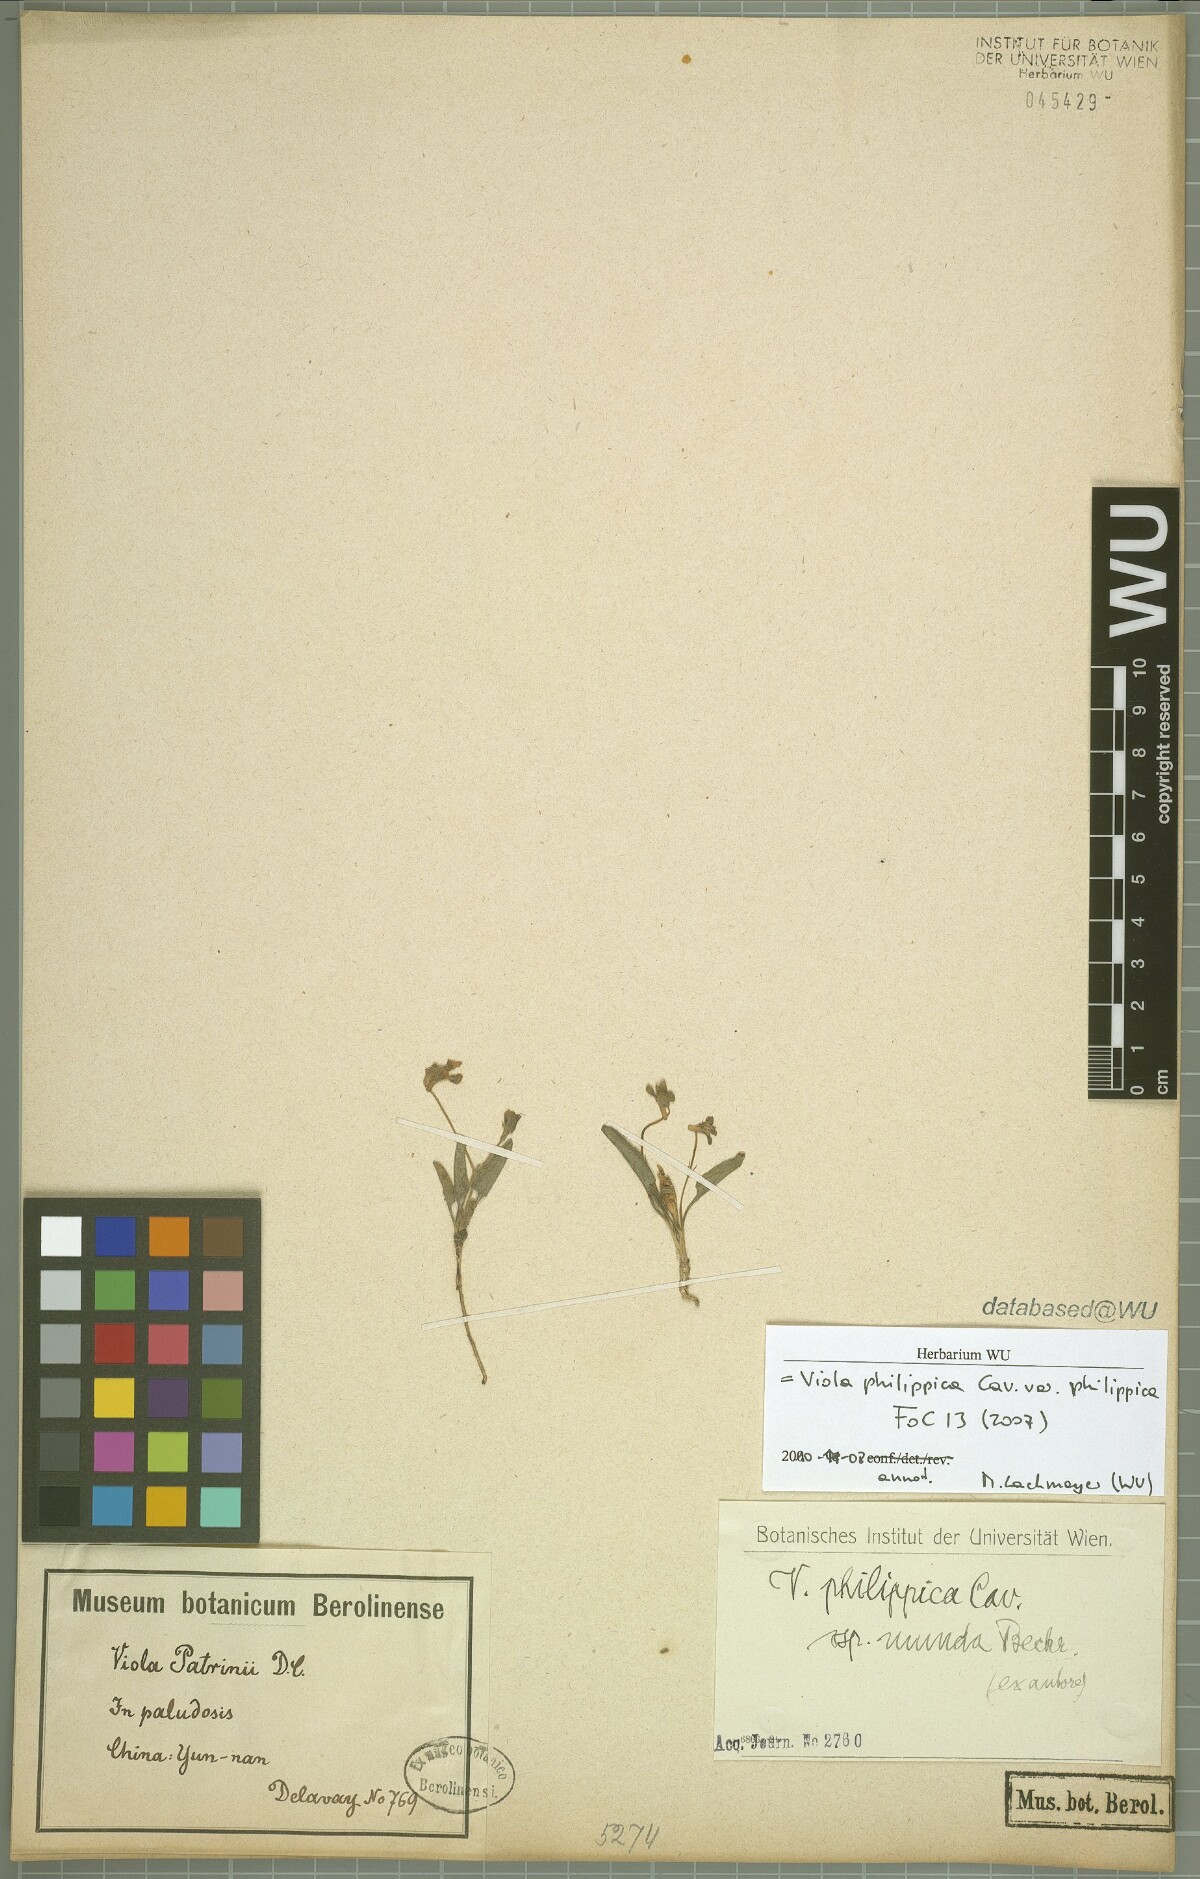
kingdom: Plantae
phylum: Tracheophyta
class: Magnoliopsida
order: Malpighiales
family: Violaceae
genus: Viola
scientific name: Viola philippica
